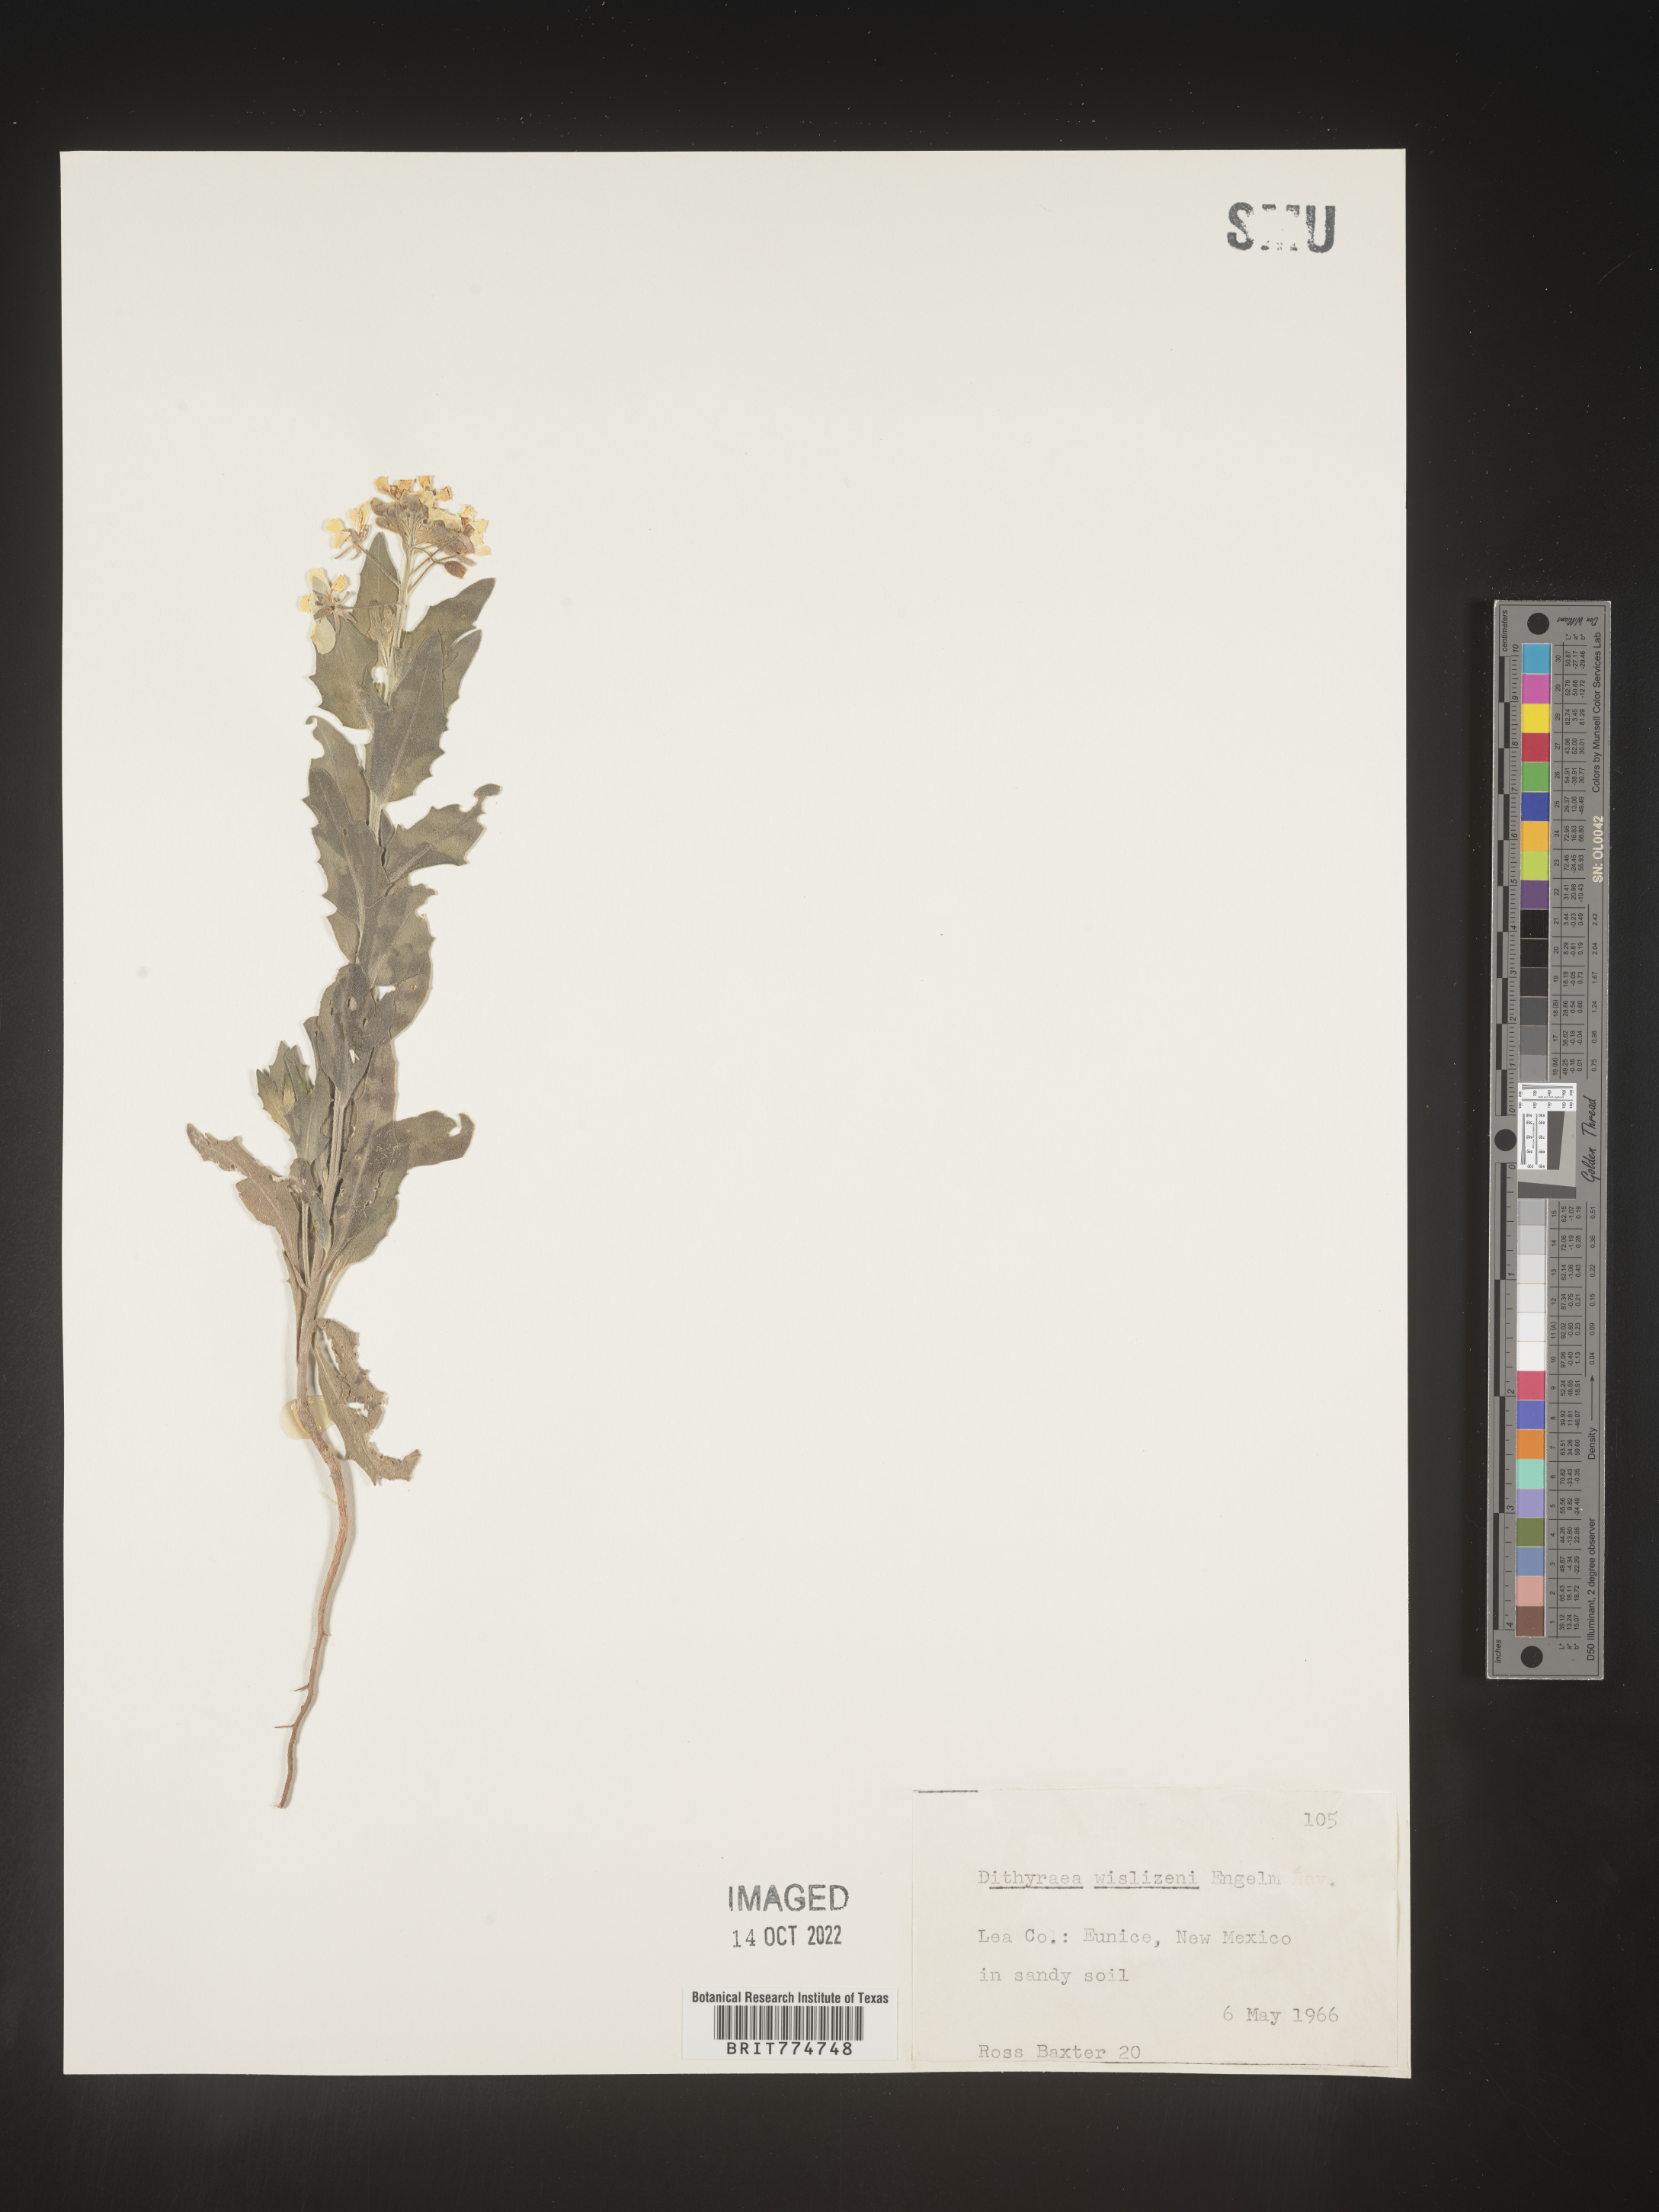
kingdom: Plantae
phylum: Tracheophyta
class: Magnoliopsida
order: Brassicales
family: Brassicaceae
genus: Dimorphocarpa
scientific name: Dimorphocarpa wislizenii
